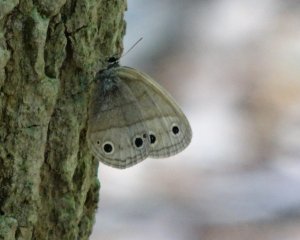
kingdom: Animalia
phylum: Arthropoda
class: Insecta
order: Lepidoptera
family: Nymphalidae
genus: Euptychia
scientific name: Euptychia cymela
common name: Little Wood Satyr
